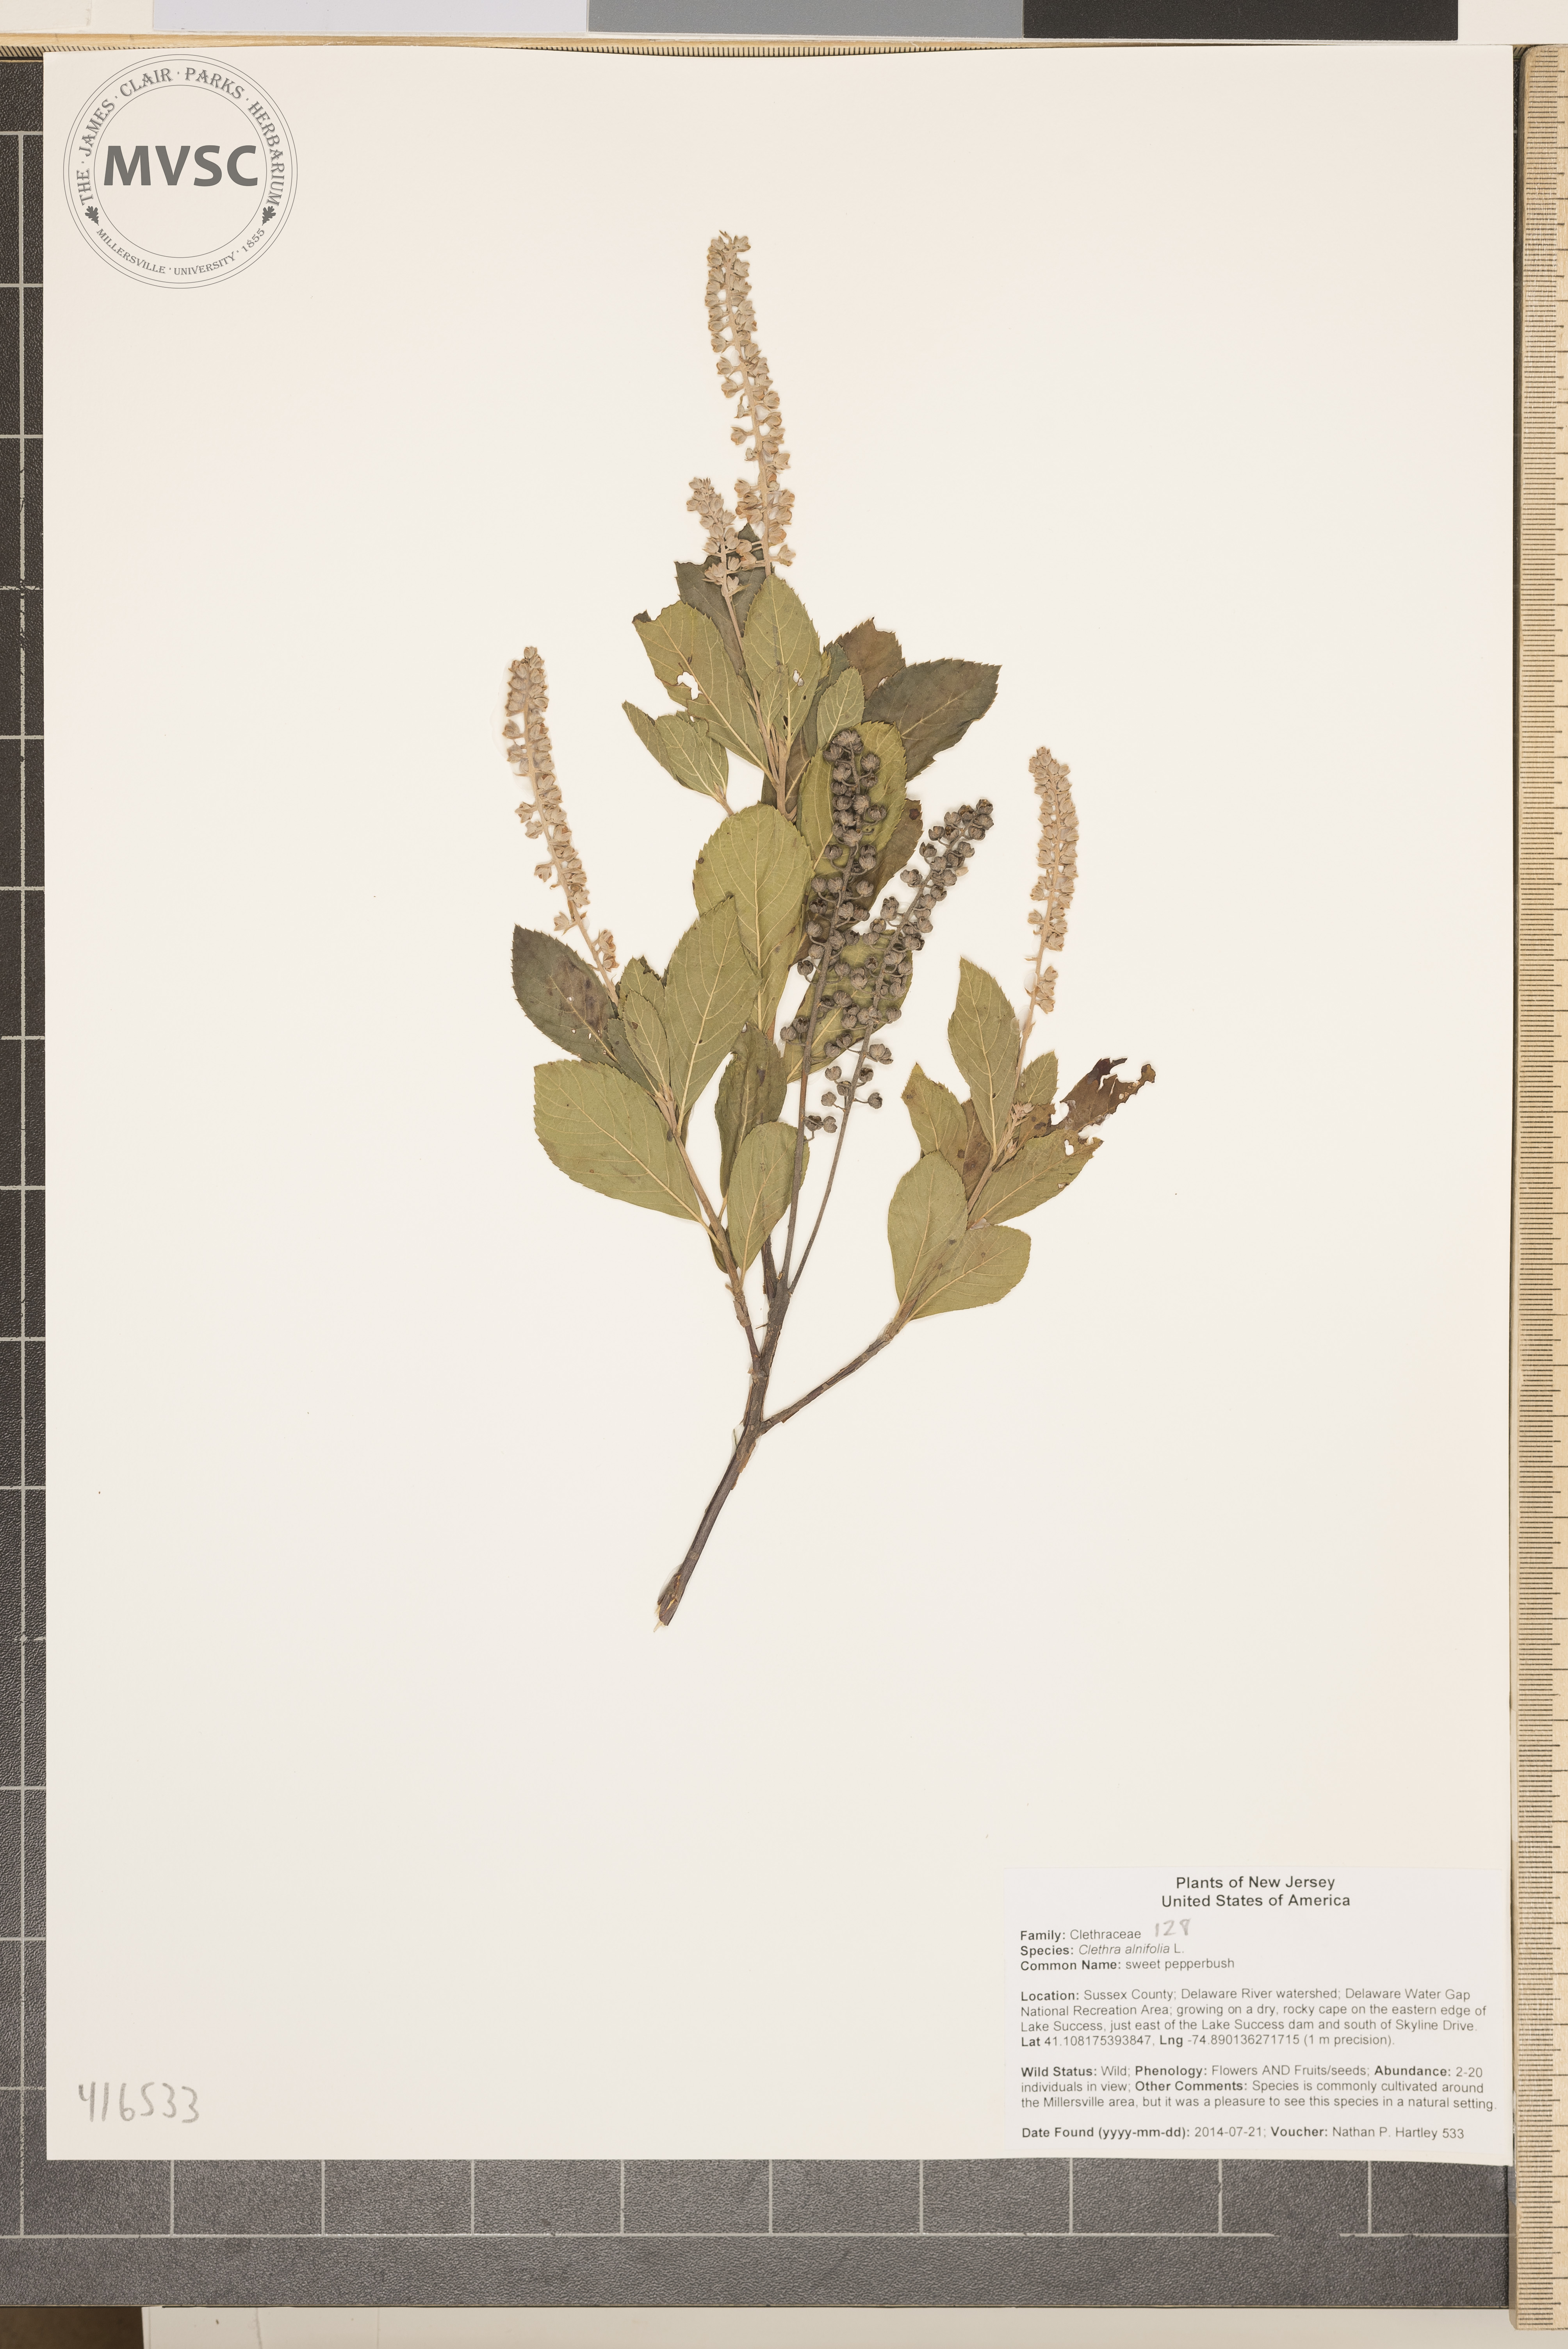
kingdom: Plantae
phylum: Tracheophyta
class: Magnoliopsida
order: Ericales
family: Clethraceae
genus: Clethra
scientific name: Clethra alnifolia
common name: sweet pepperbush
